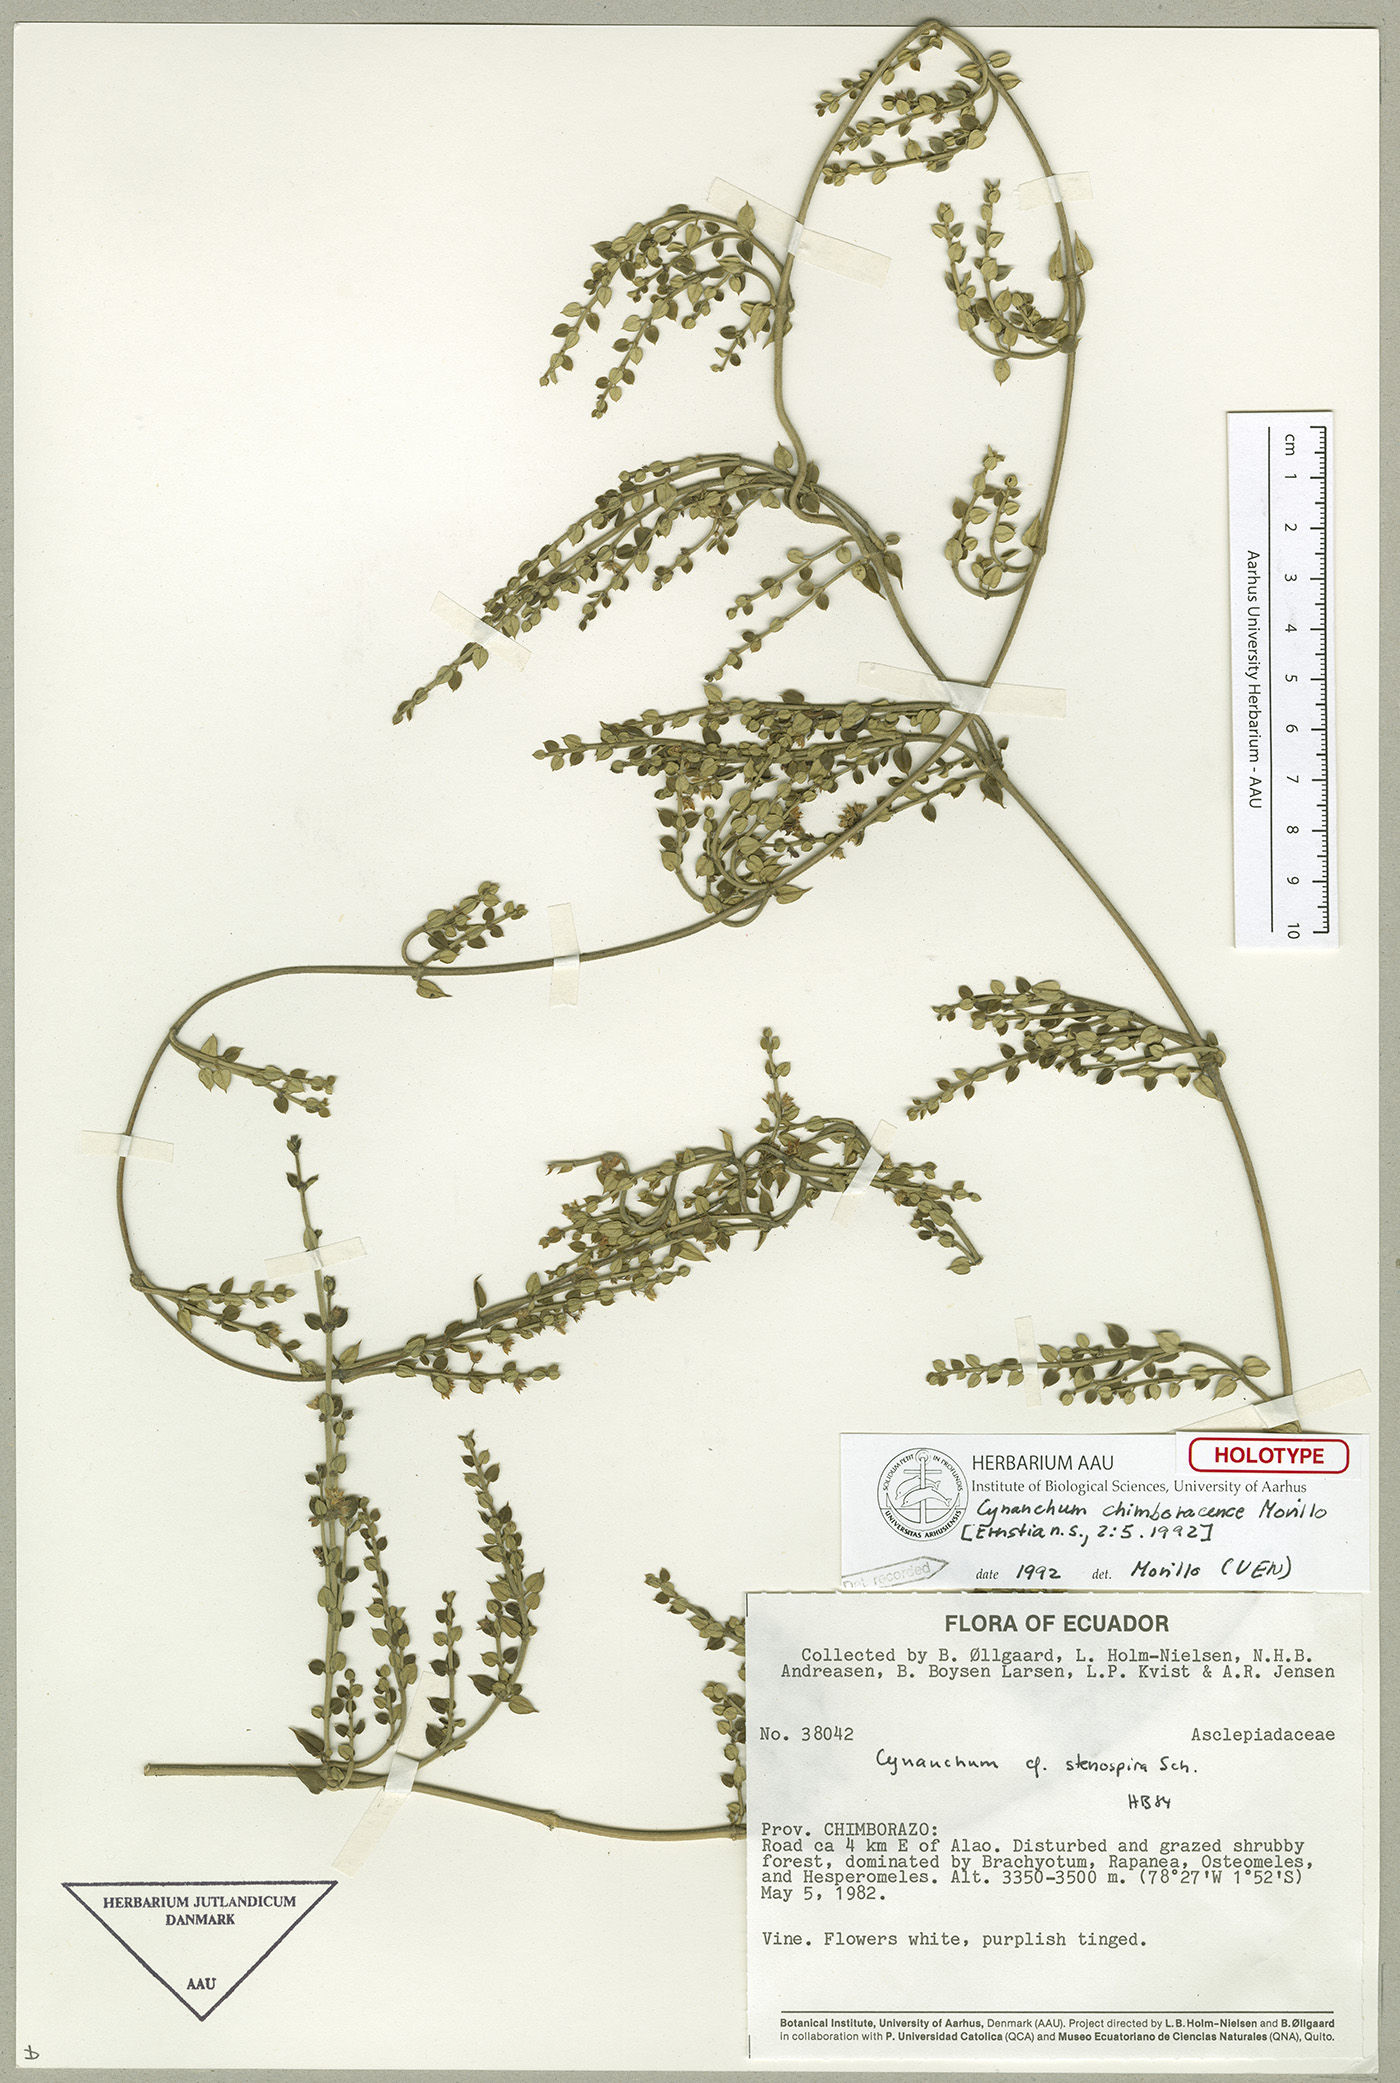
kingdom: Plantae
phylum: Tracheophyta
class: Magnoliopsida
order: Gentianales
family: Apocynaceae
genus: Scyphostelma
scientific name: Scyphostelma chimboracense
